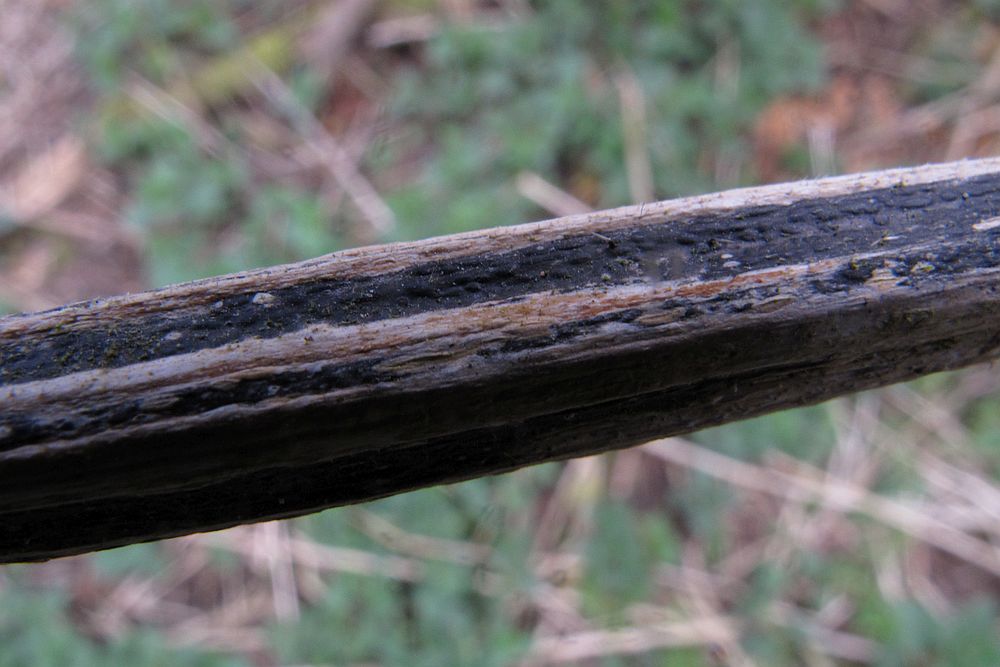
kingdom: Fungi
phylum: Ascomycota
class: Sordariomycetes
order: Diaporthales
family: Diaporthaceae
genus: Diaporthopsis
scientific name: Diaporthopsis urticae
